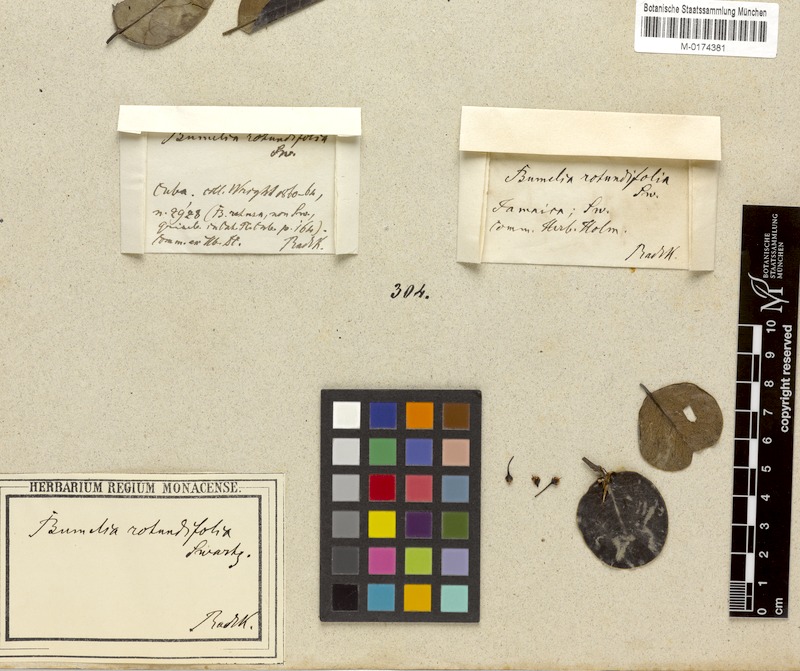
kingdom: Plantae
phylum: Tracheophyta
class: Magnoliopsida
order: Ericales
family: Sapotaceae
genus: Sideroxylon
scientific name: Sideroxylon rotundifolium
